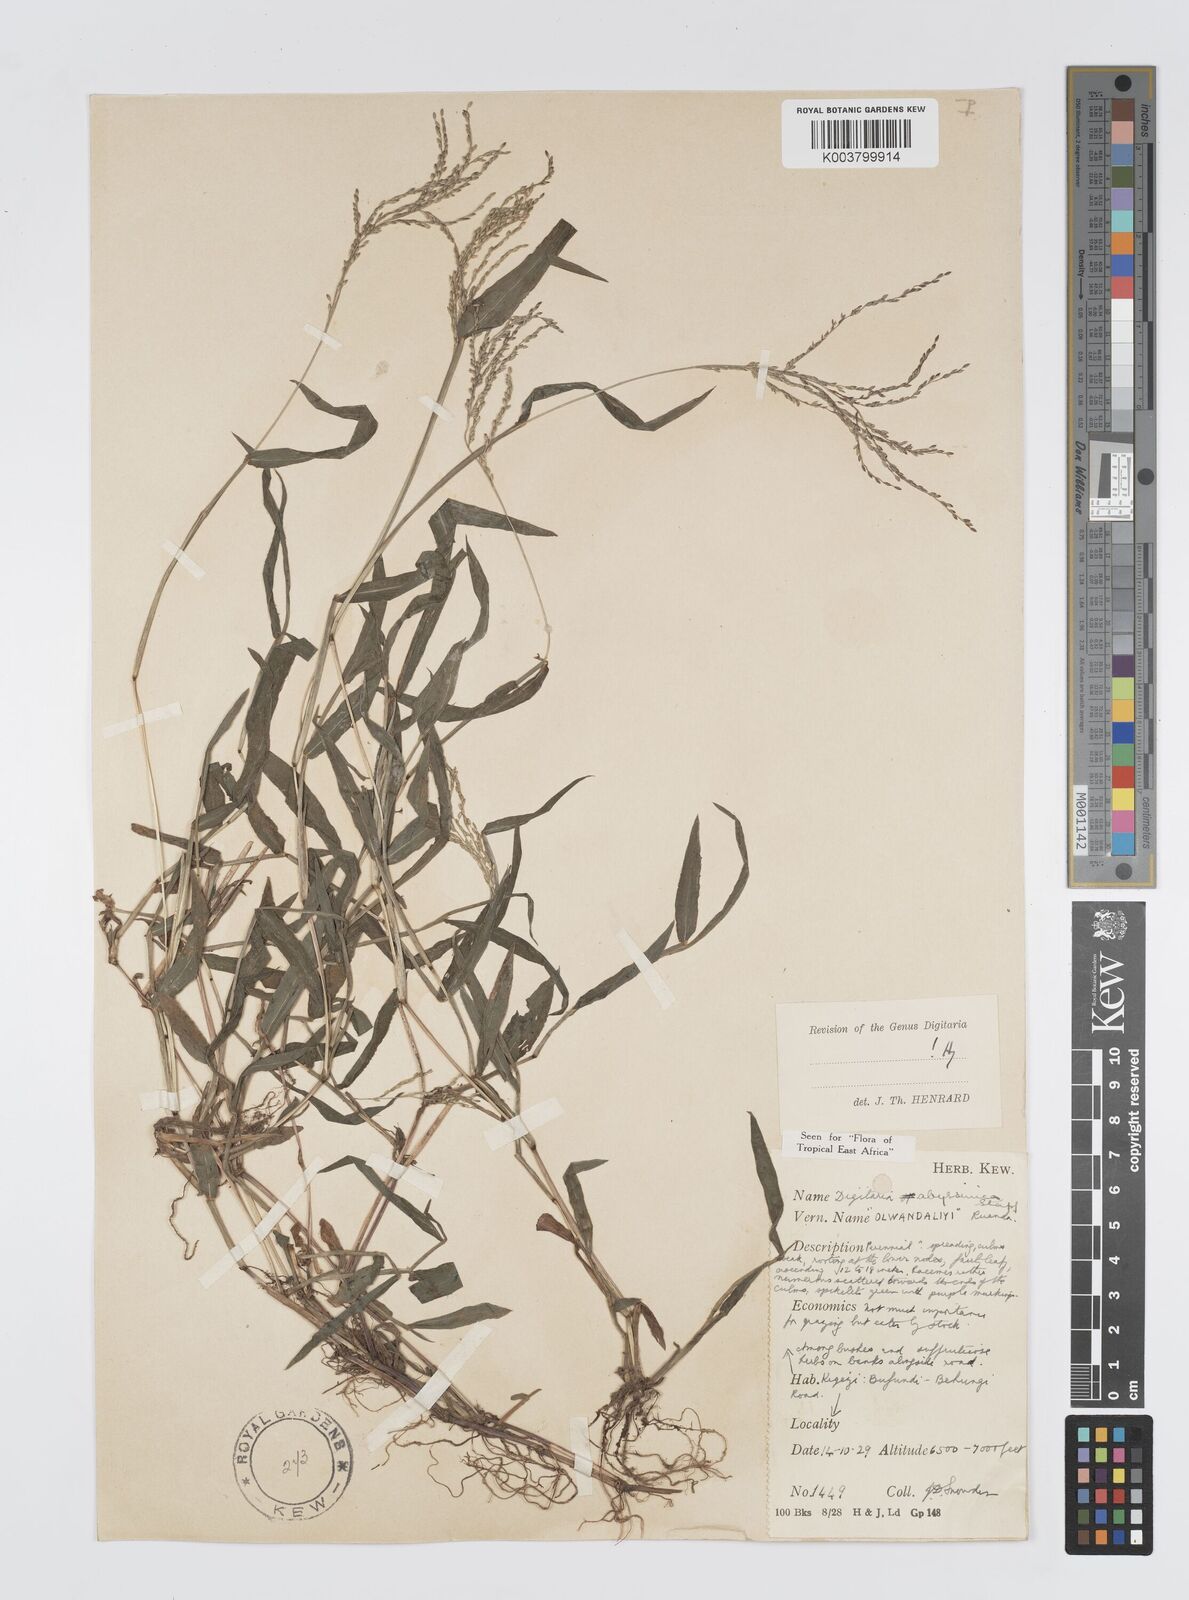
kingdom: Plantae
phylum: Tracheophyta
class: Liliopsida
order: Poales
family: Poaceae
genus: Digitaria
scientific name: Digitaria abyssinica
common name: African couchgrass
